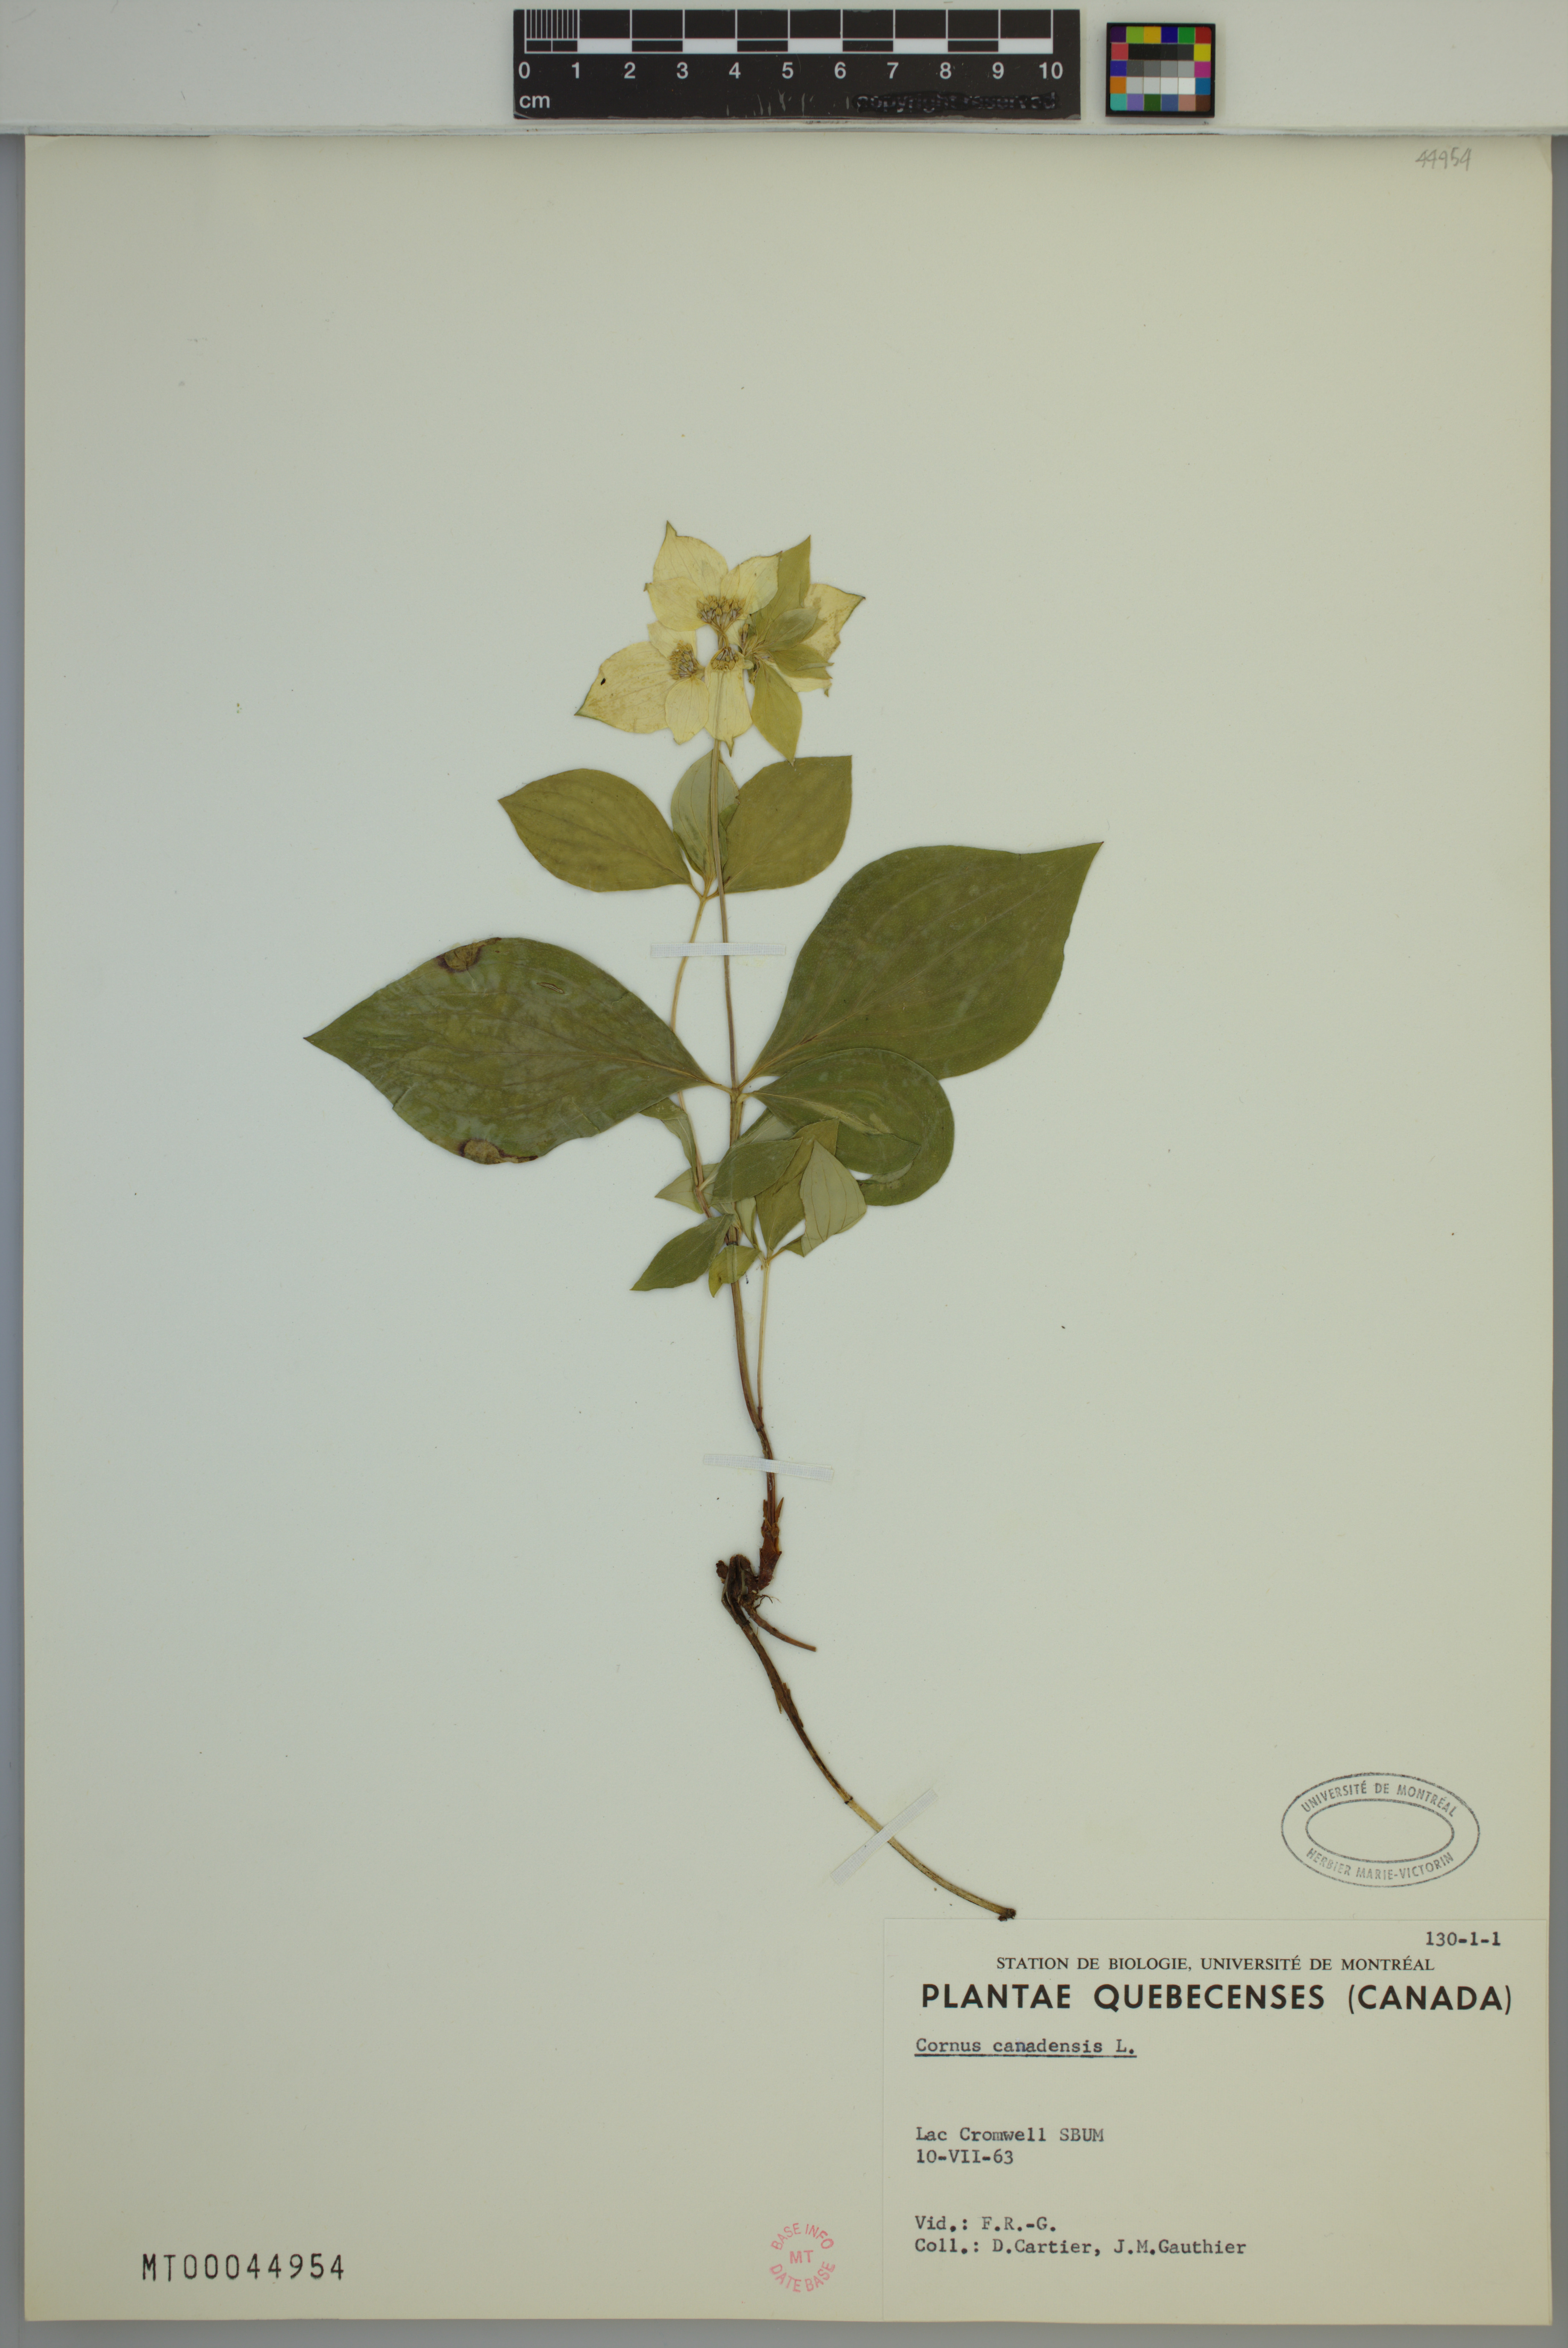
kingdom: Plantae
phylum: Tracheophyta
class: Magnoliopsida
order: Cornales
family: Cornaceae
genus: Cornus
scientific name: Cornus canadensis
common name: Creeping dogwood
